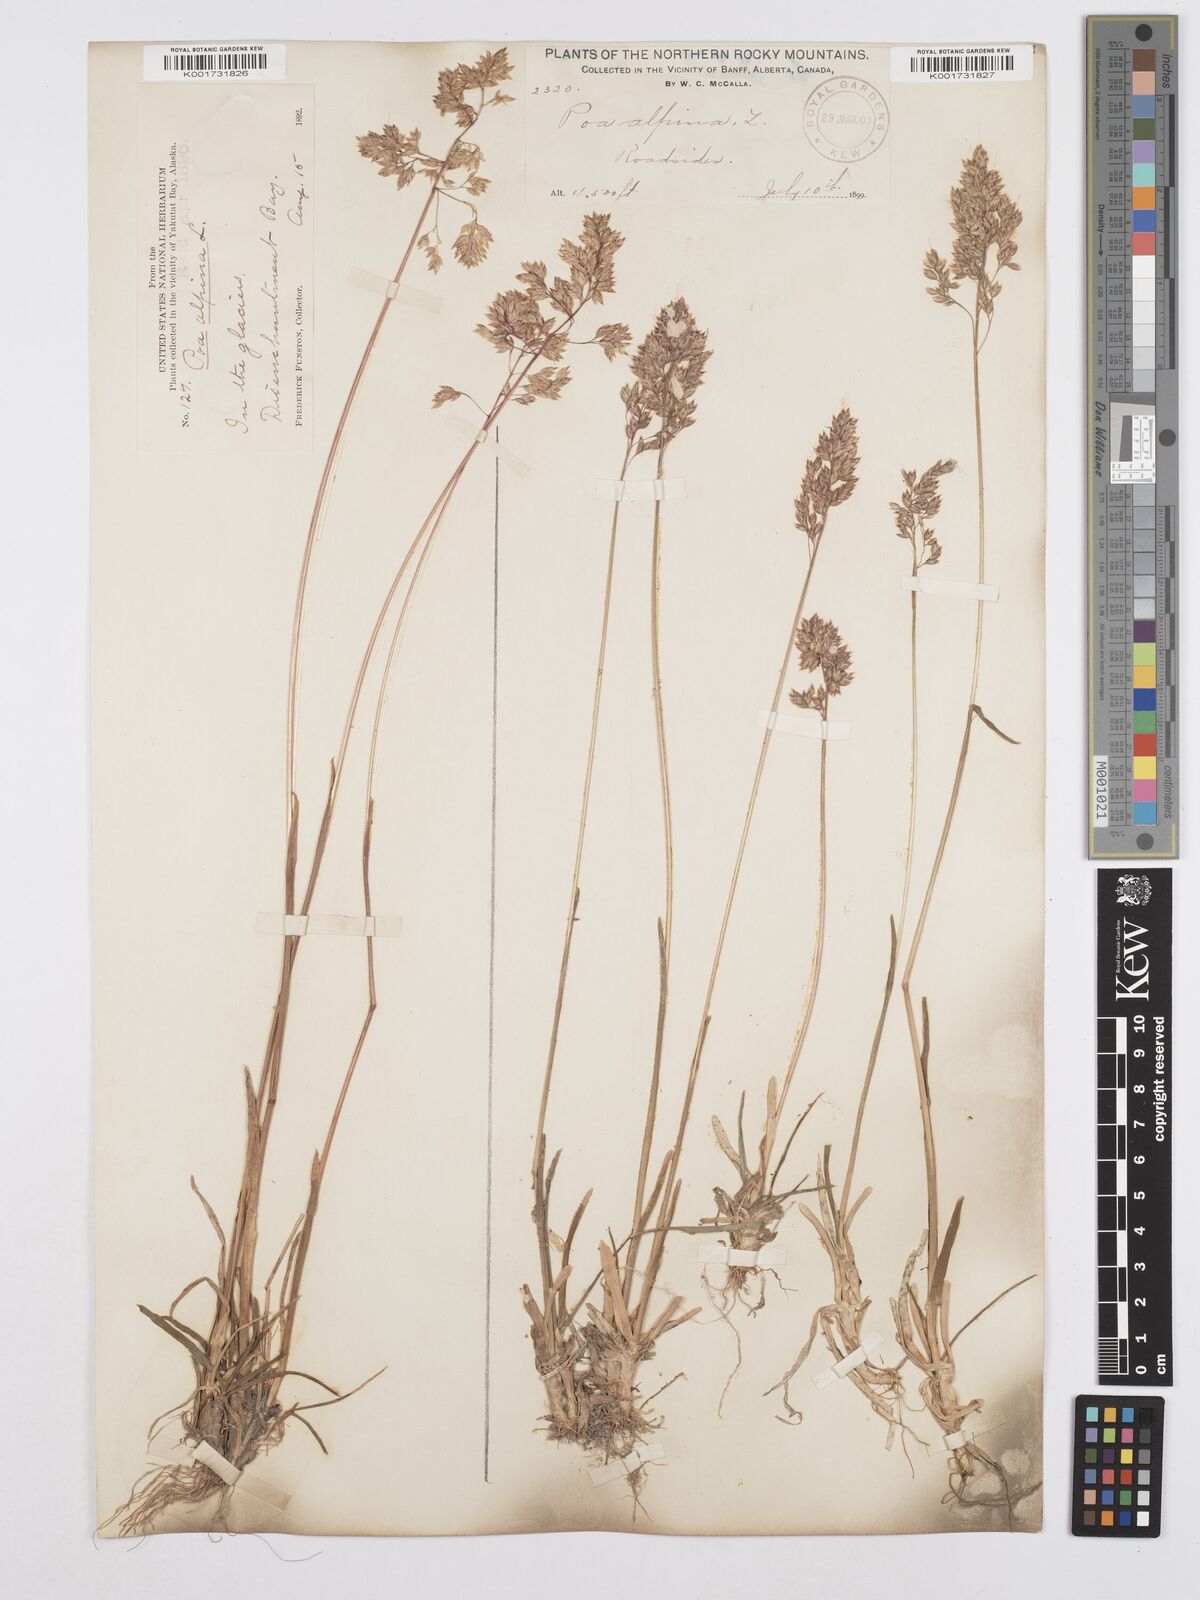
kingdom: Plantae
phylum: Tracheophyta
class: Liliopsida
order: Poales
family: Poaceae
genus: Poa
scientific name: Poa alpina
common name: Alpine bluegrass
